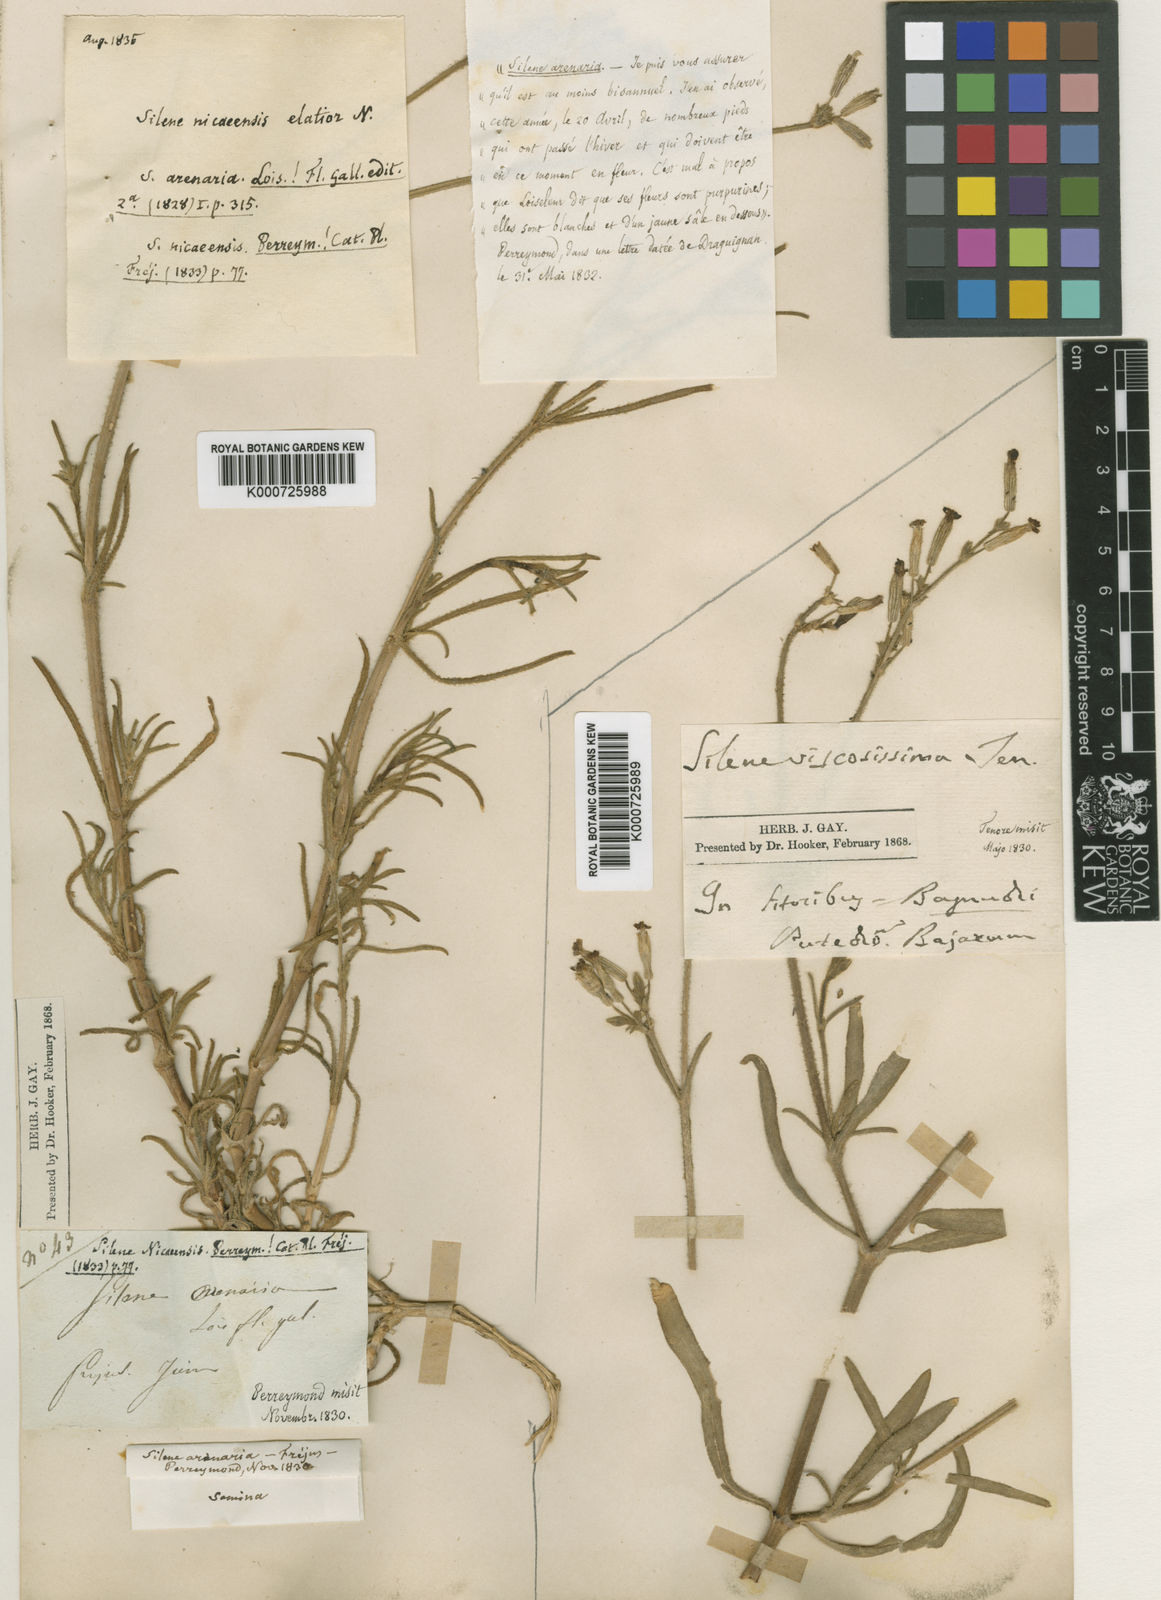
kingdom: Plantae
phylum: Tracheophyta
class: Magnoliopsida
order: Caryophyllales
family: Caryophyllaceae
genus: Silene
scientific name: Silene nicaeensis
